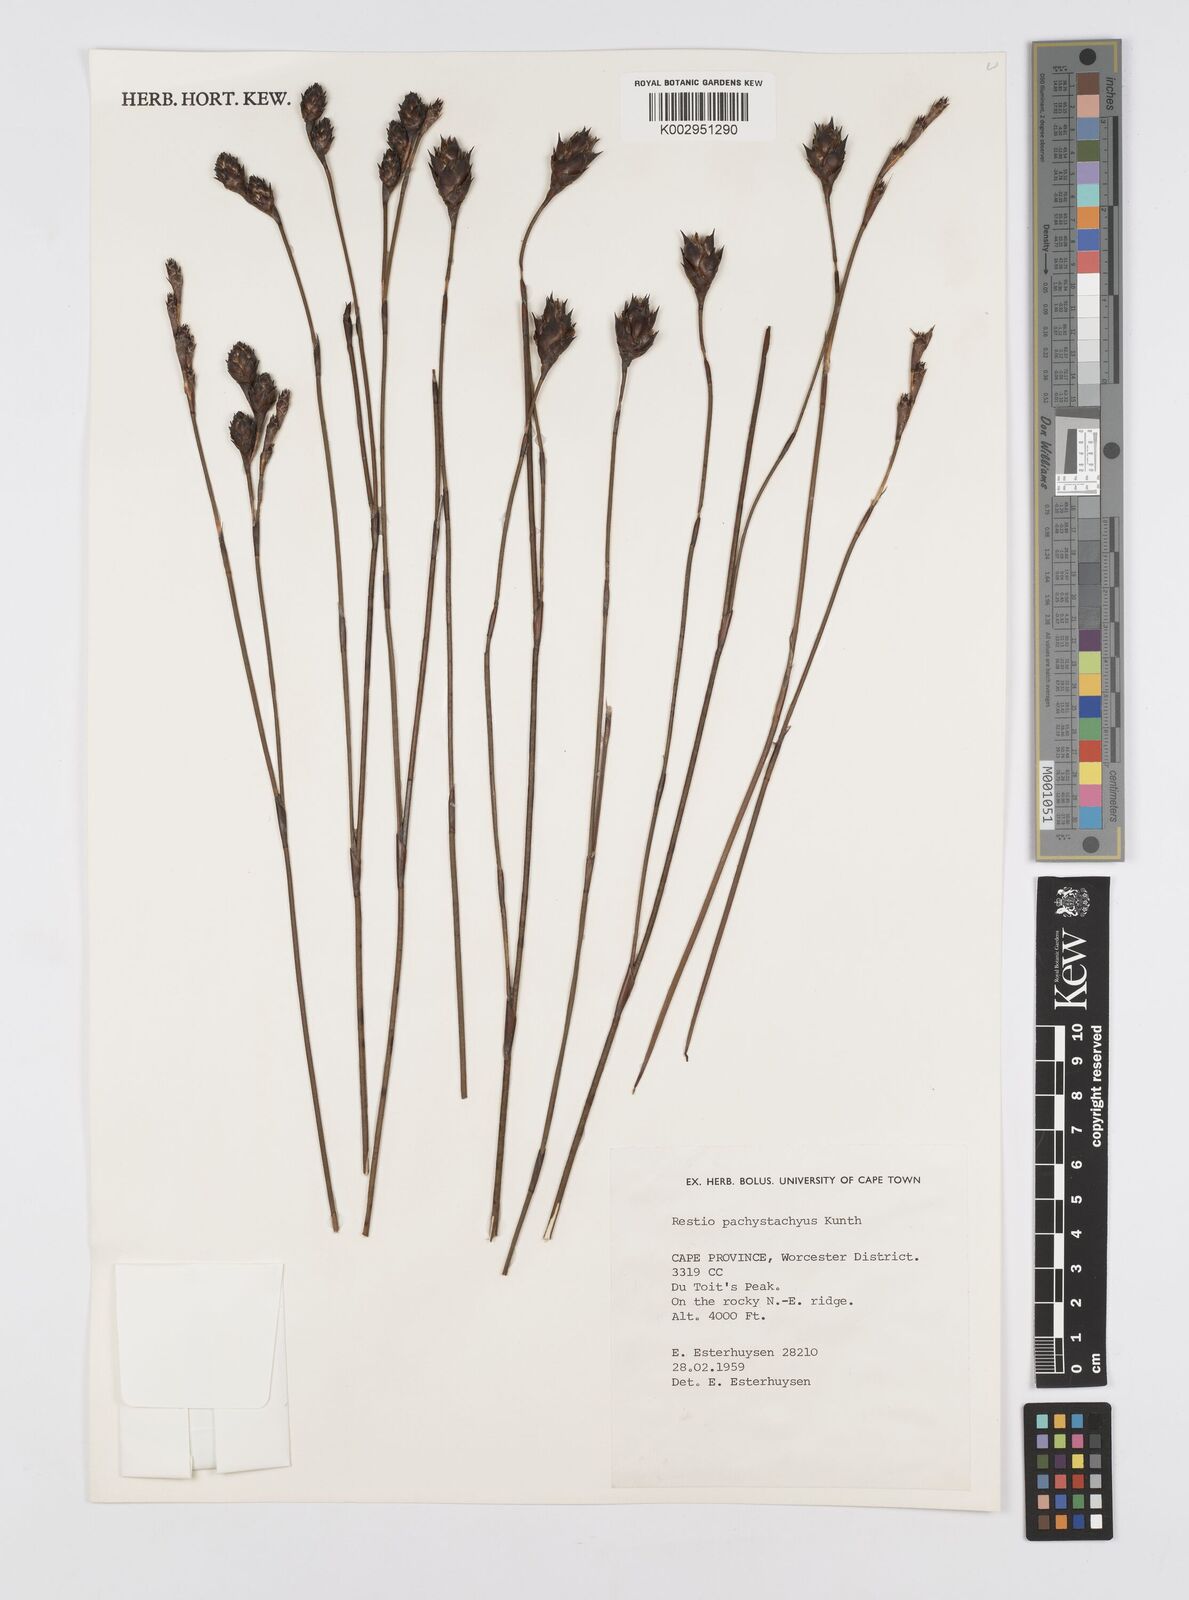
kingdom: Plantae
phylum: Tracheophyta
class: Liliopsida
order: Poales
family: Restionaceae
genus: Restio
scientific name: Restio pachystachyus
